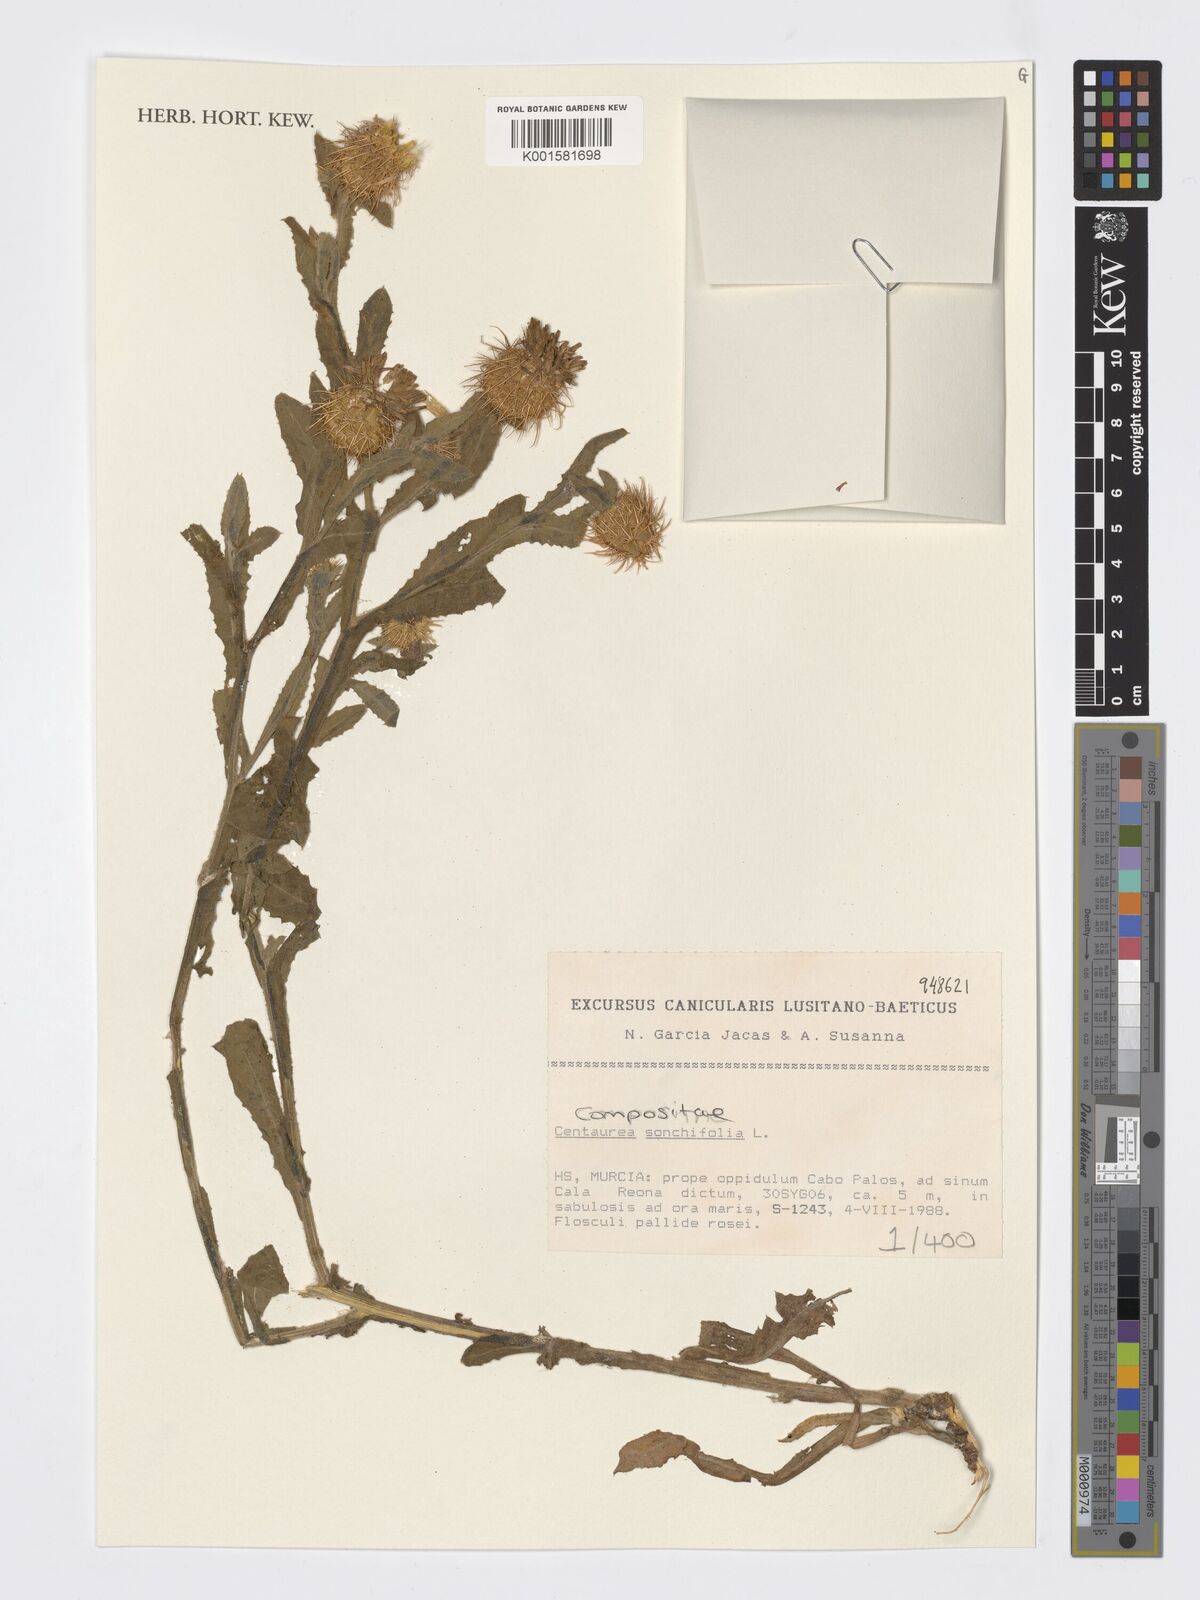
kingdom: Plantae
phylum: Tracheophyta
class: Magnoliopsida
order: Asterales
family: Asteraceae
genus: Centaurea
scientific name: Centaurea seridis
